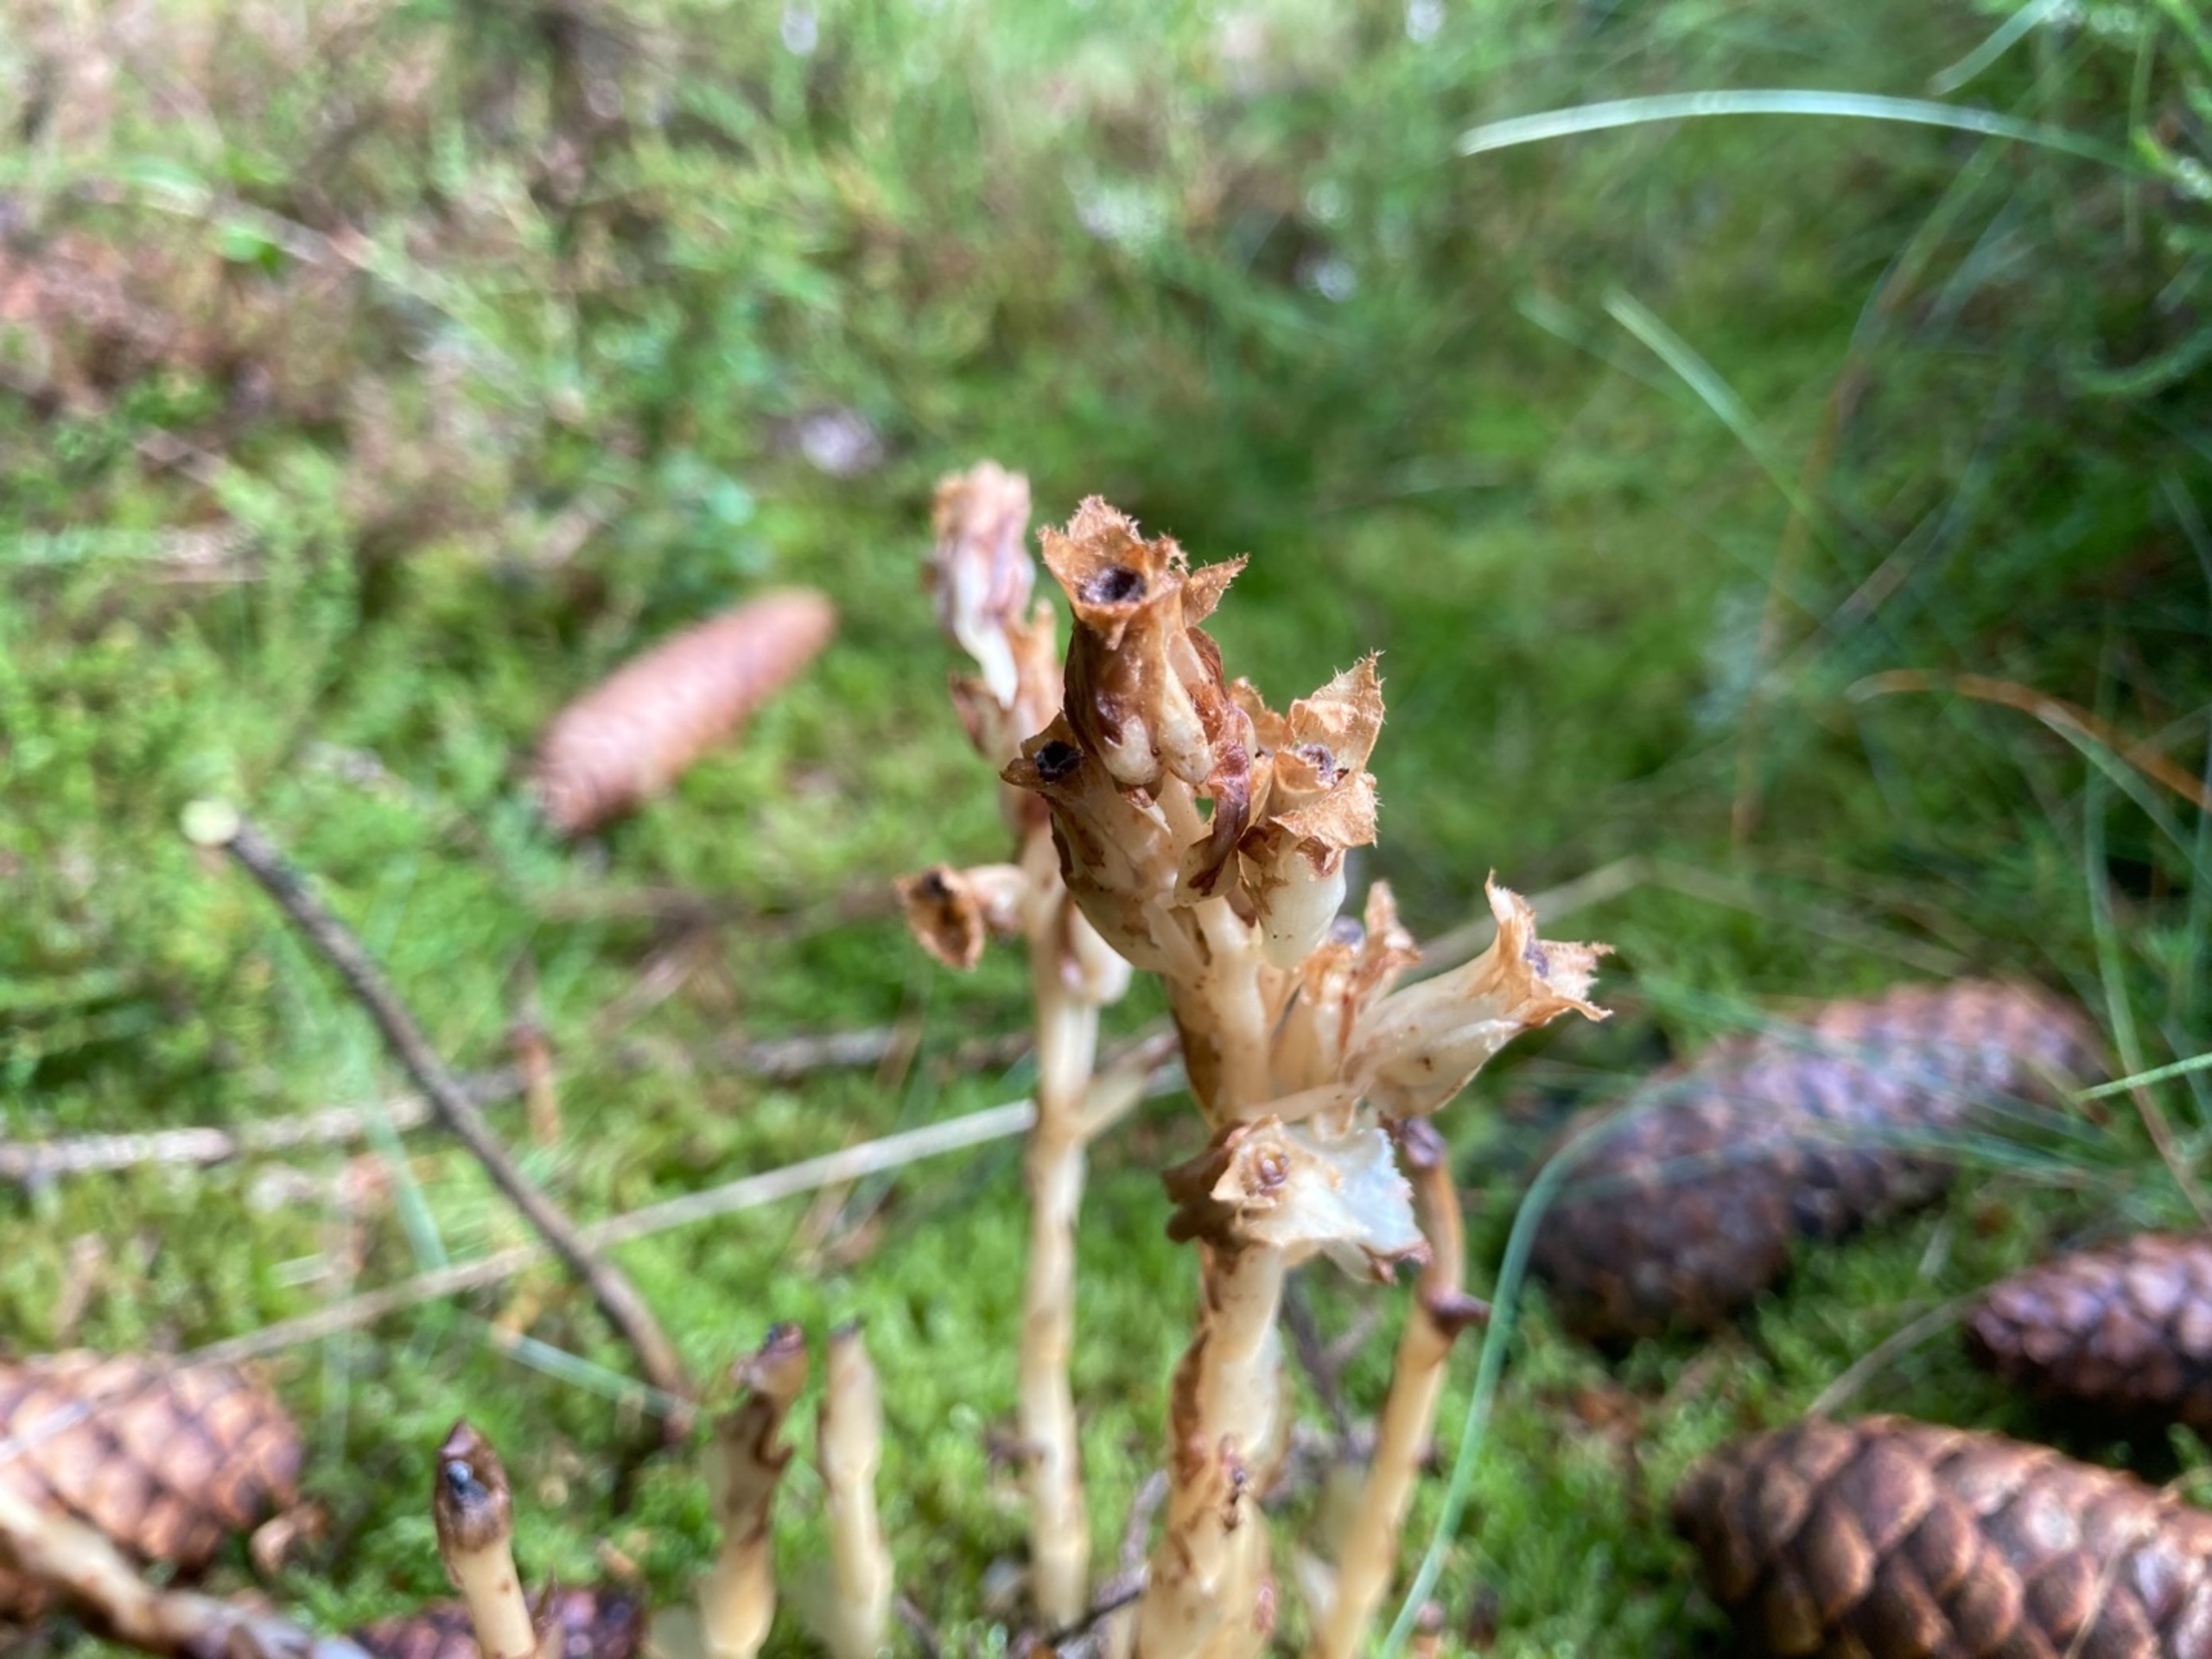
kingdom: Plantae
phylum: Tracheophyta
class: Magnoliopsida
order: Ericales
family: Ericaceae
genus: Hypopitys
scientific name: Hypopitys hypophegea
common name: Glat snylterod
